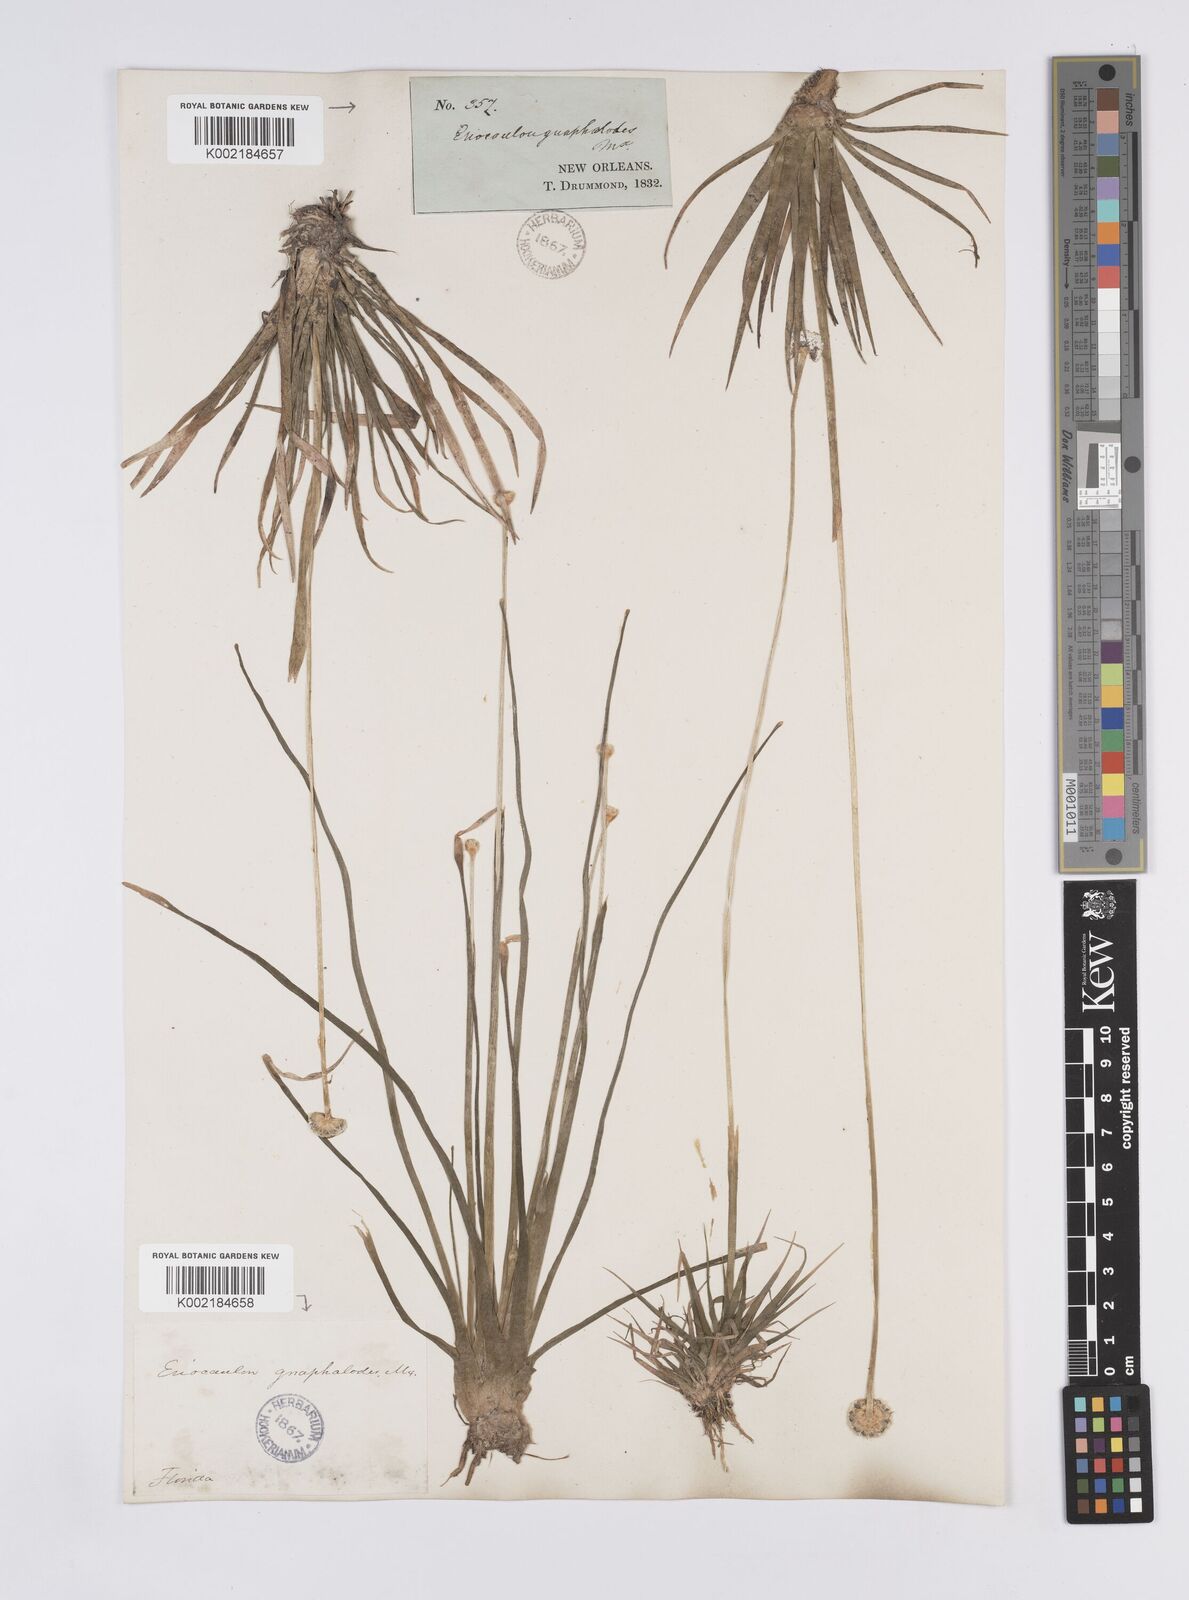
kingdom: Plantae
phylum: Tracheophyta
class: Liliopsida
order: Poales
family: Eriocaulaceae
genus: Eriocaulon
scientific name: Eriocaulon compressum
